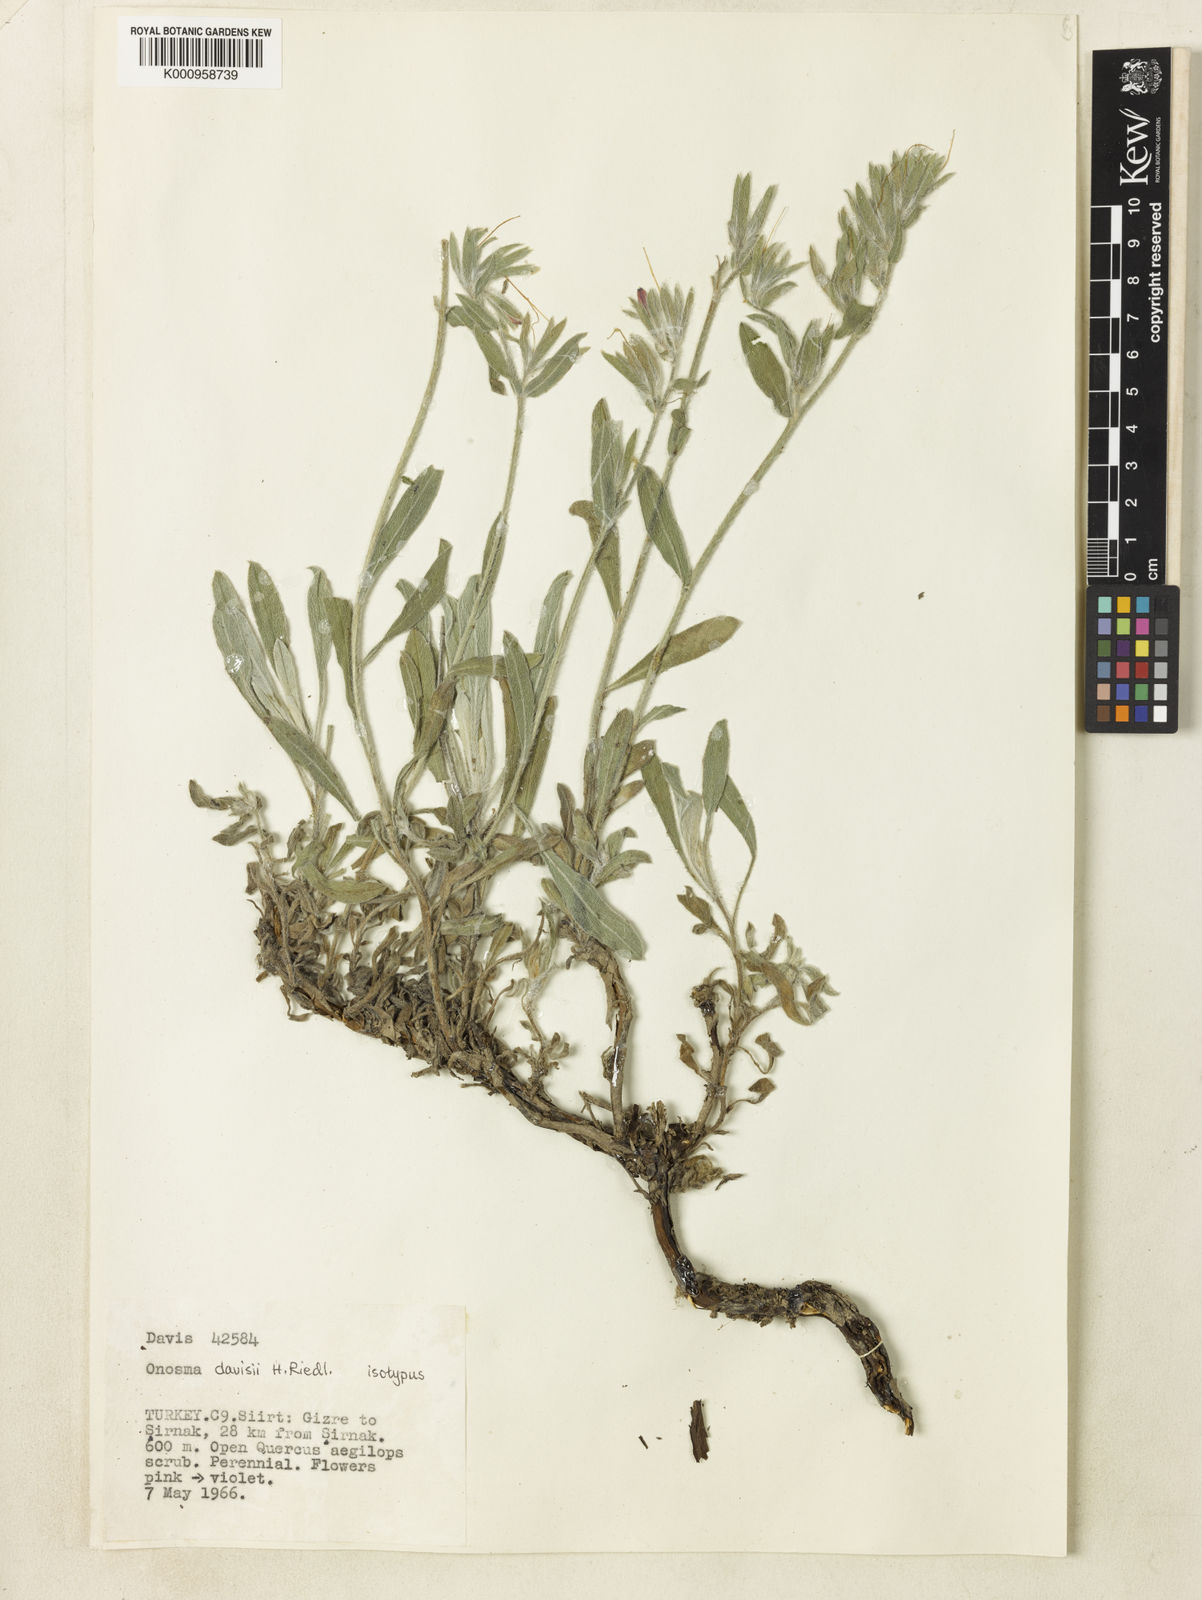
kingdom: Plantae
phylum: Tracheophyta
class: Magnoliopsida
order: Boraginales
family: Boraginaceae
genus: Onosma
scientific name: Onosma alborosea
